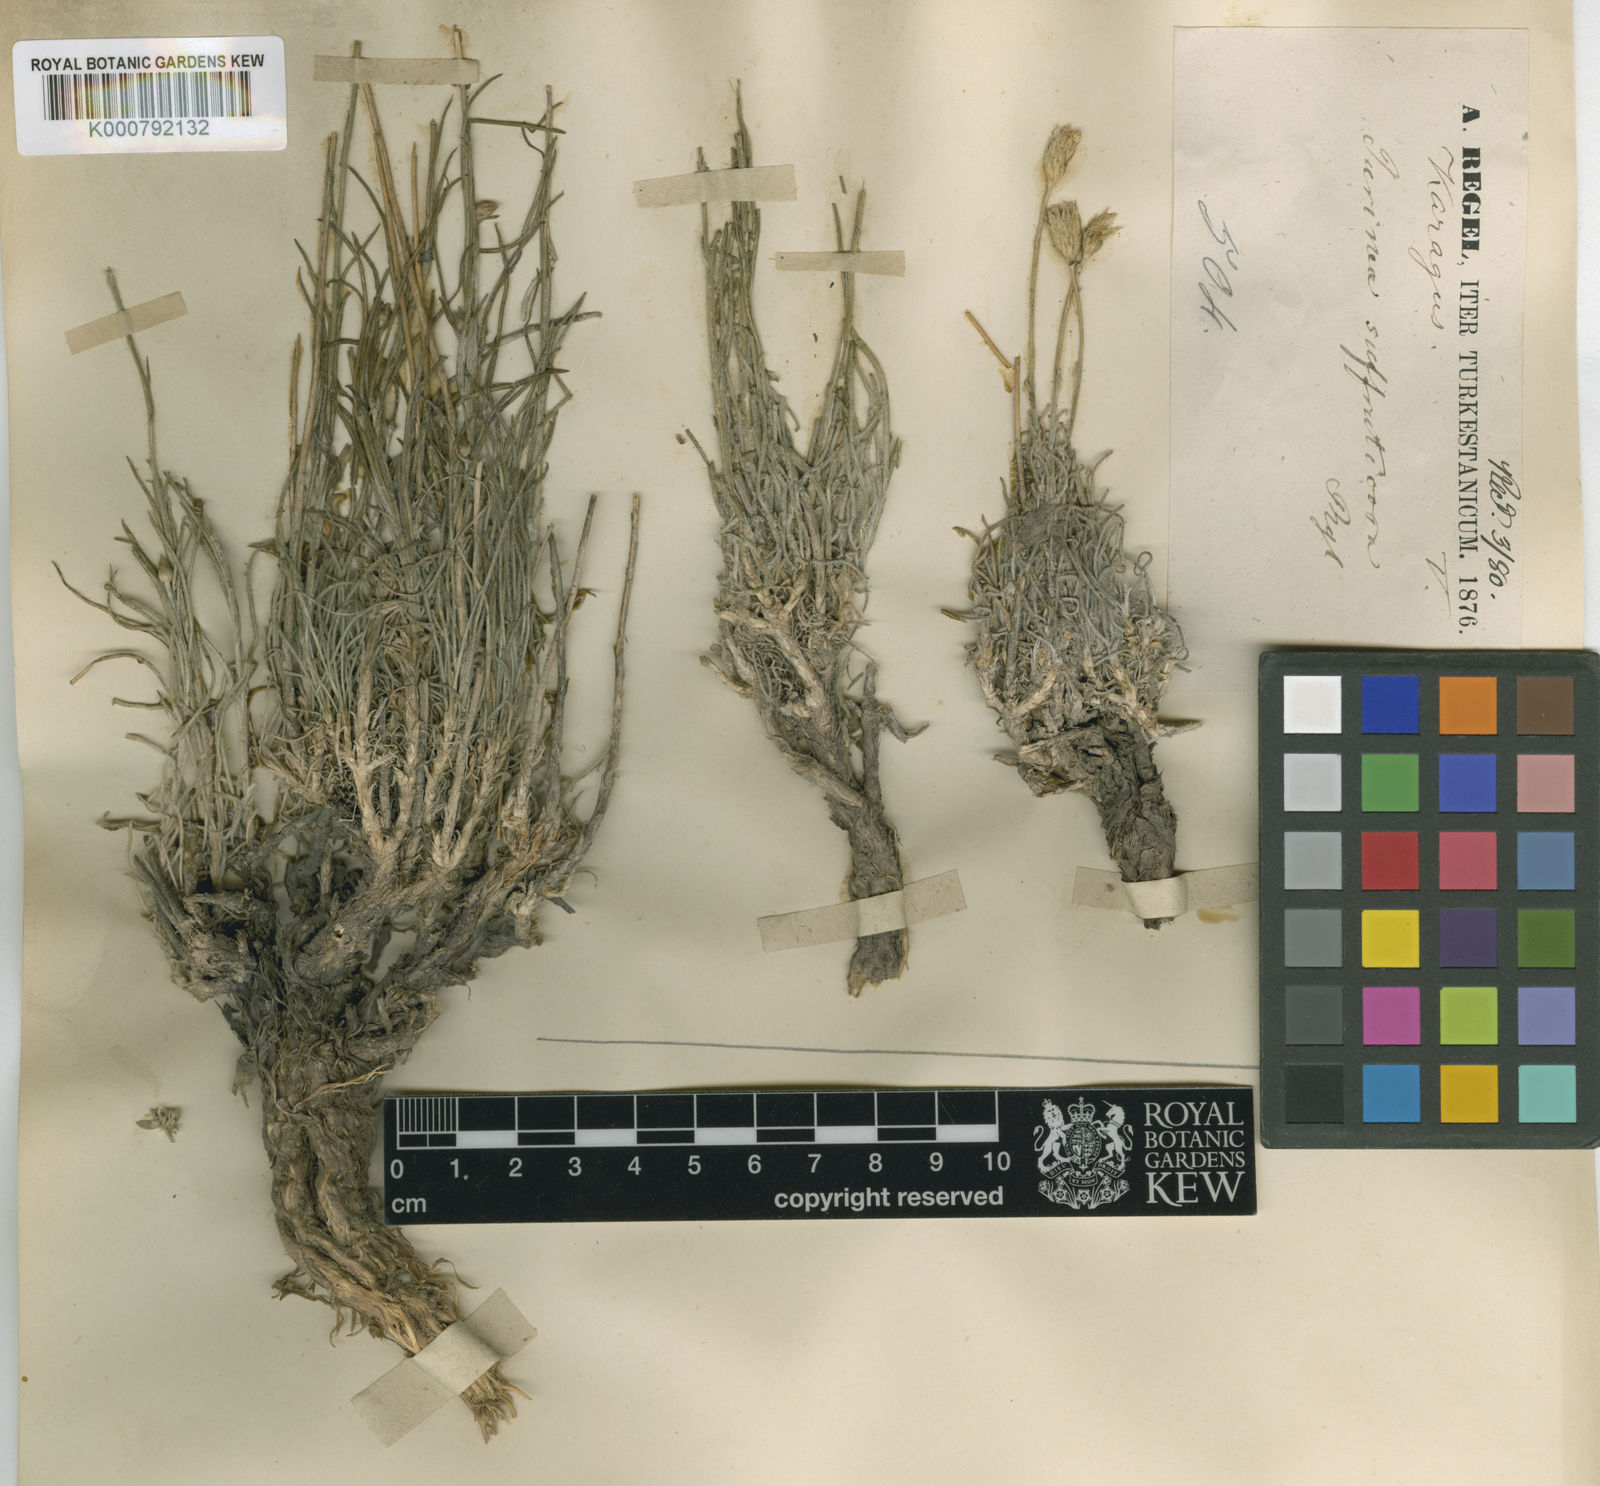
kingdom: Plantae
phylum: Tracheophyta
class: Magnoliopsida
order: Asterales
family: Asteraceae
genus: Jurinea
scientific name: Jurinea suffruticosa
